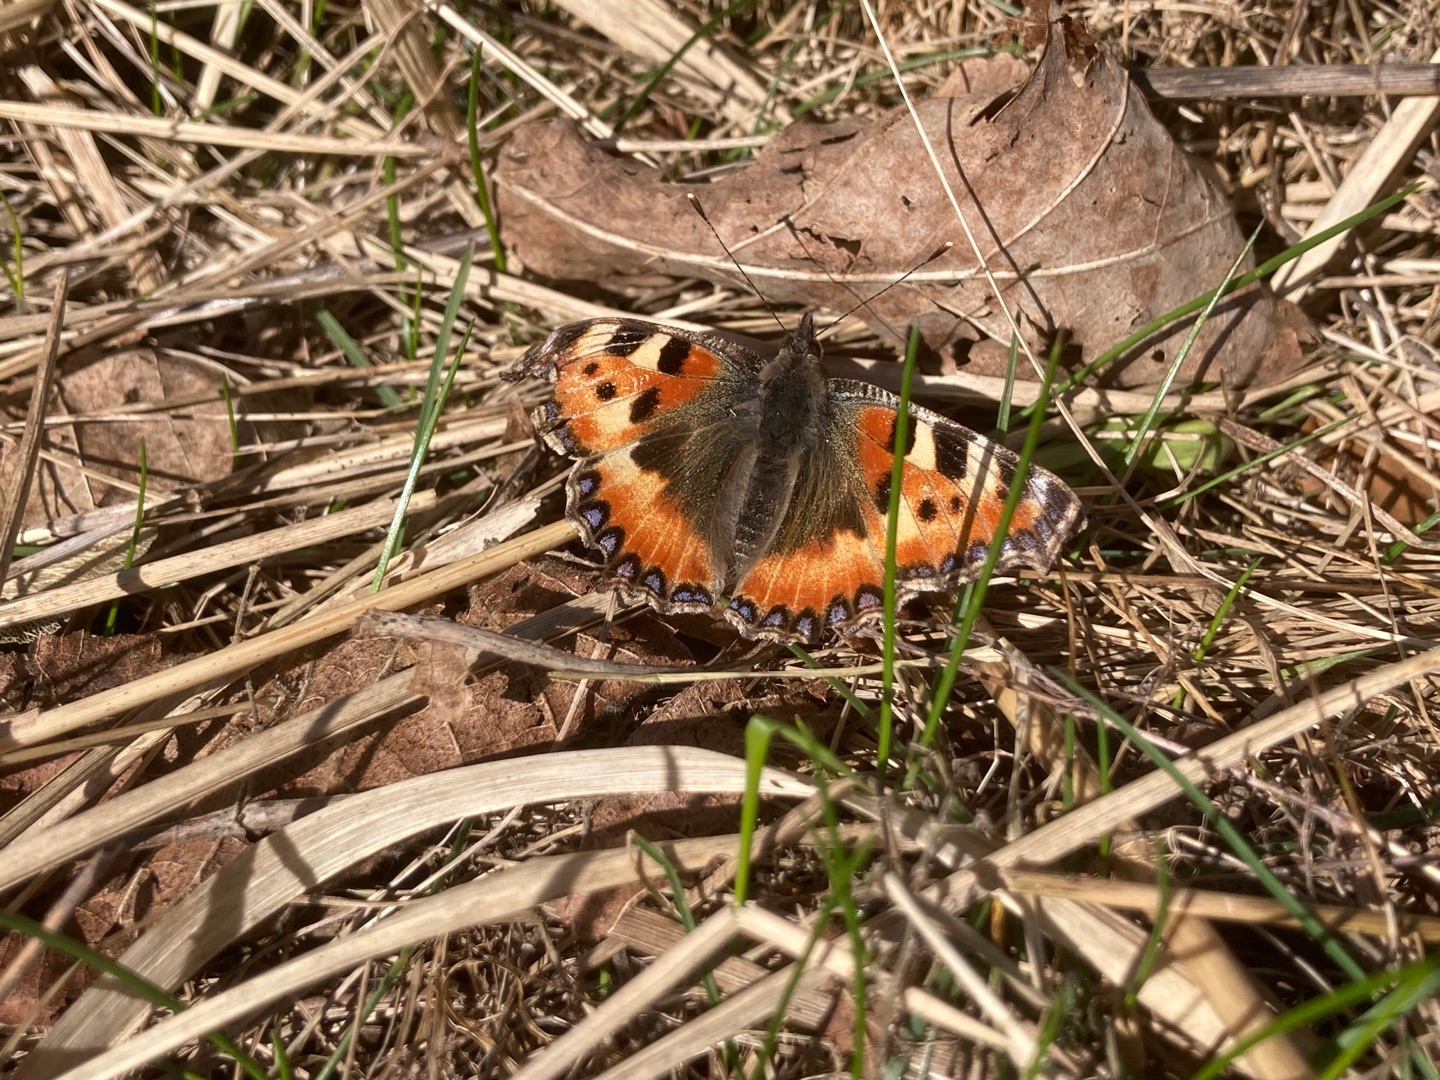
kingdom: Animalia
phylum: Arthropoda
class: Insecta
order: Lepidoptera
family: Nymphalidae
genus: Aglais
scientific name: Aglais urticae
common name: Nældens takvinge
